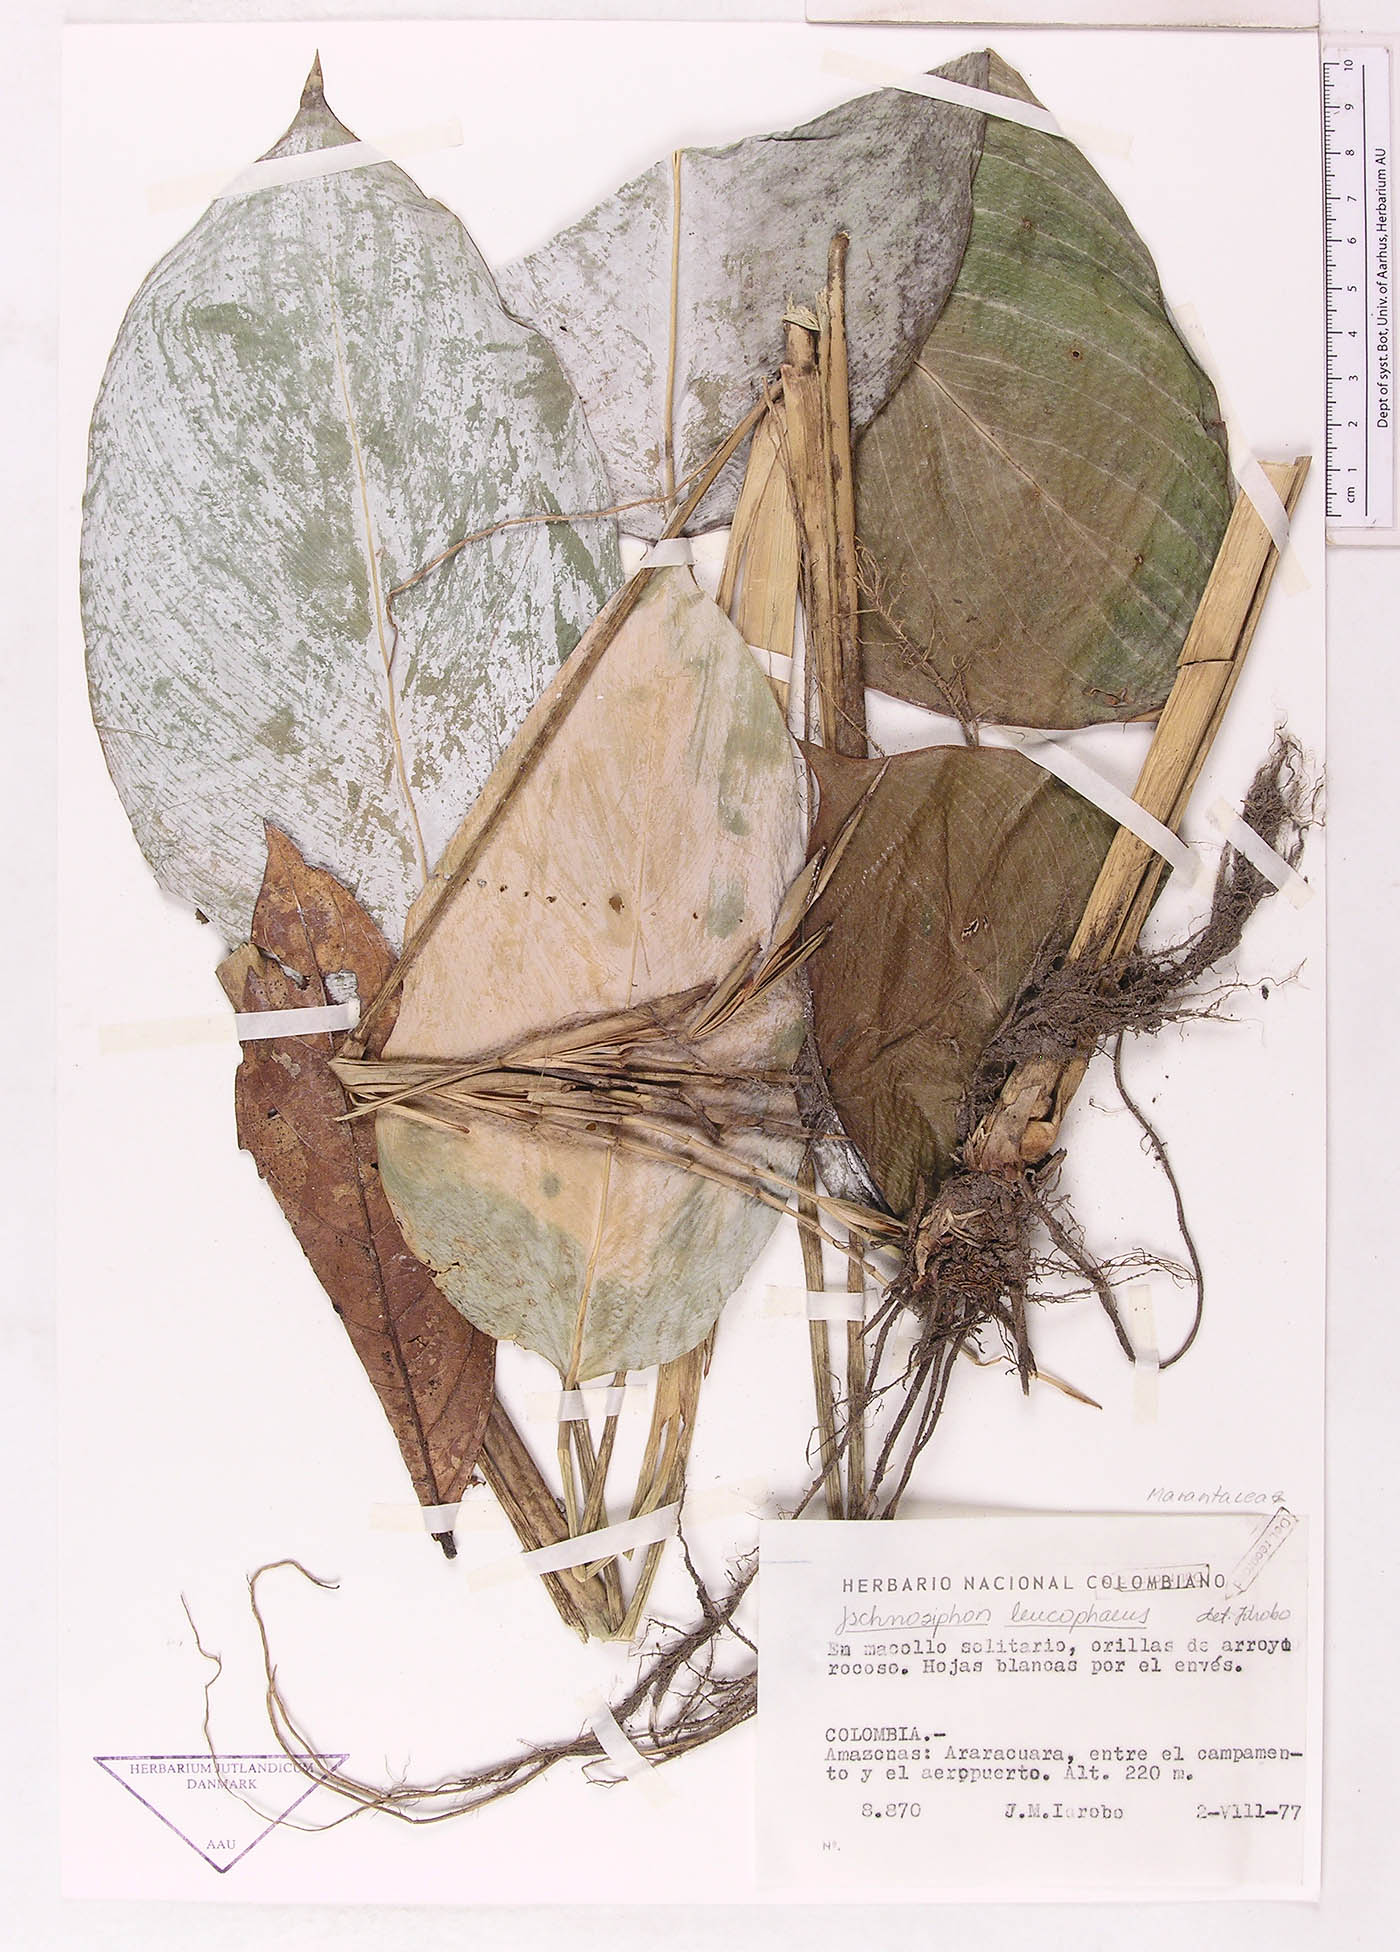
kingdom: Plantae
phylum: Tracheophyta
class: Liliopsida
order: Zingiberales
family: Marantaceae
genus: Ischnosiphon
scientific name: Ischnosiphon
